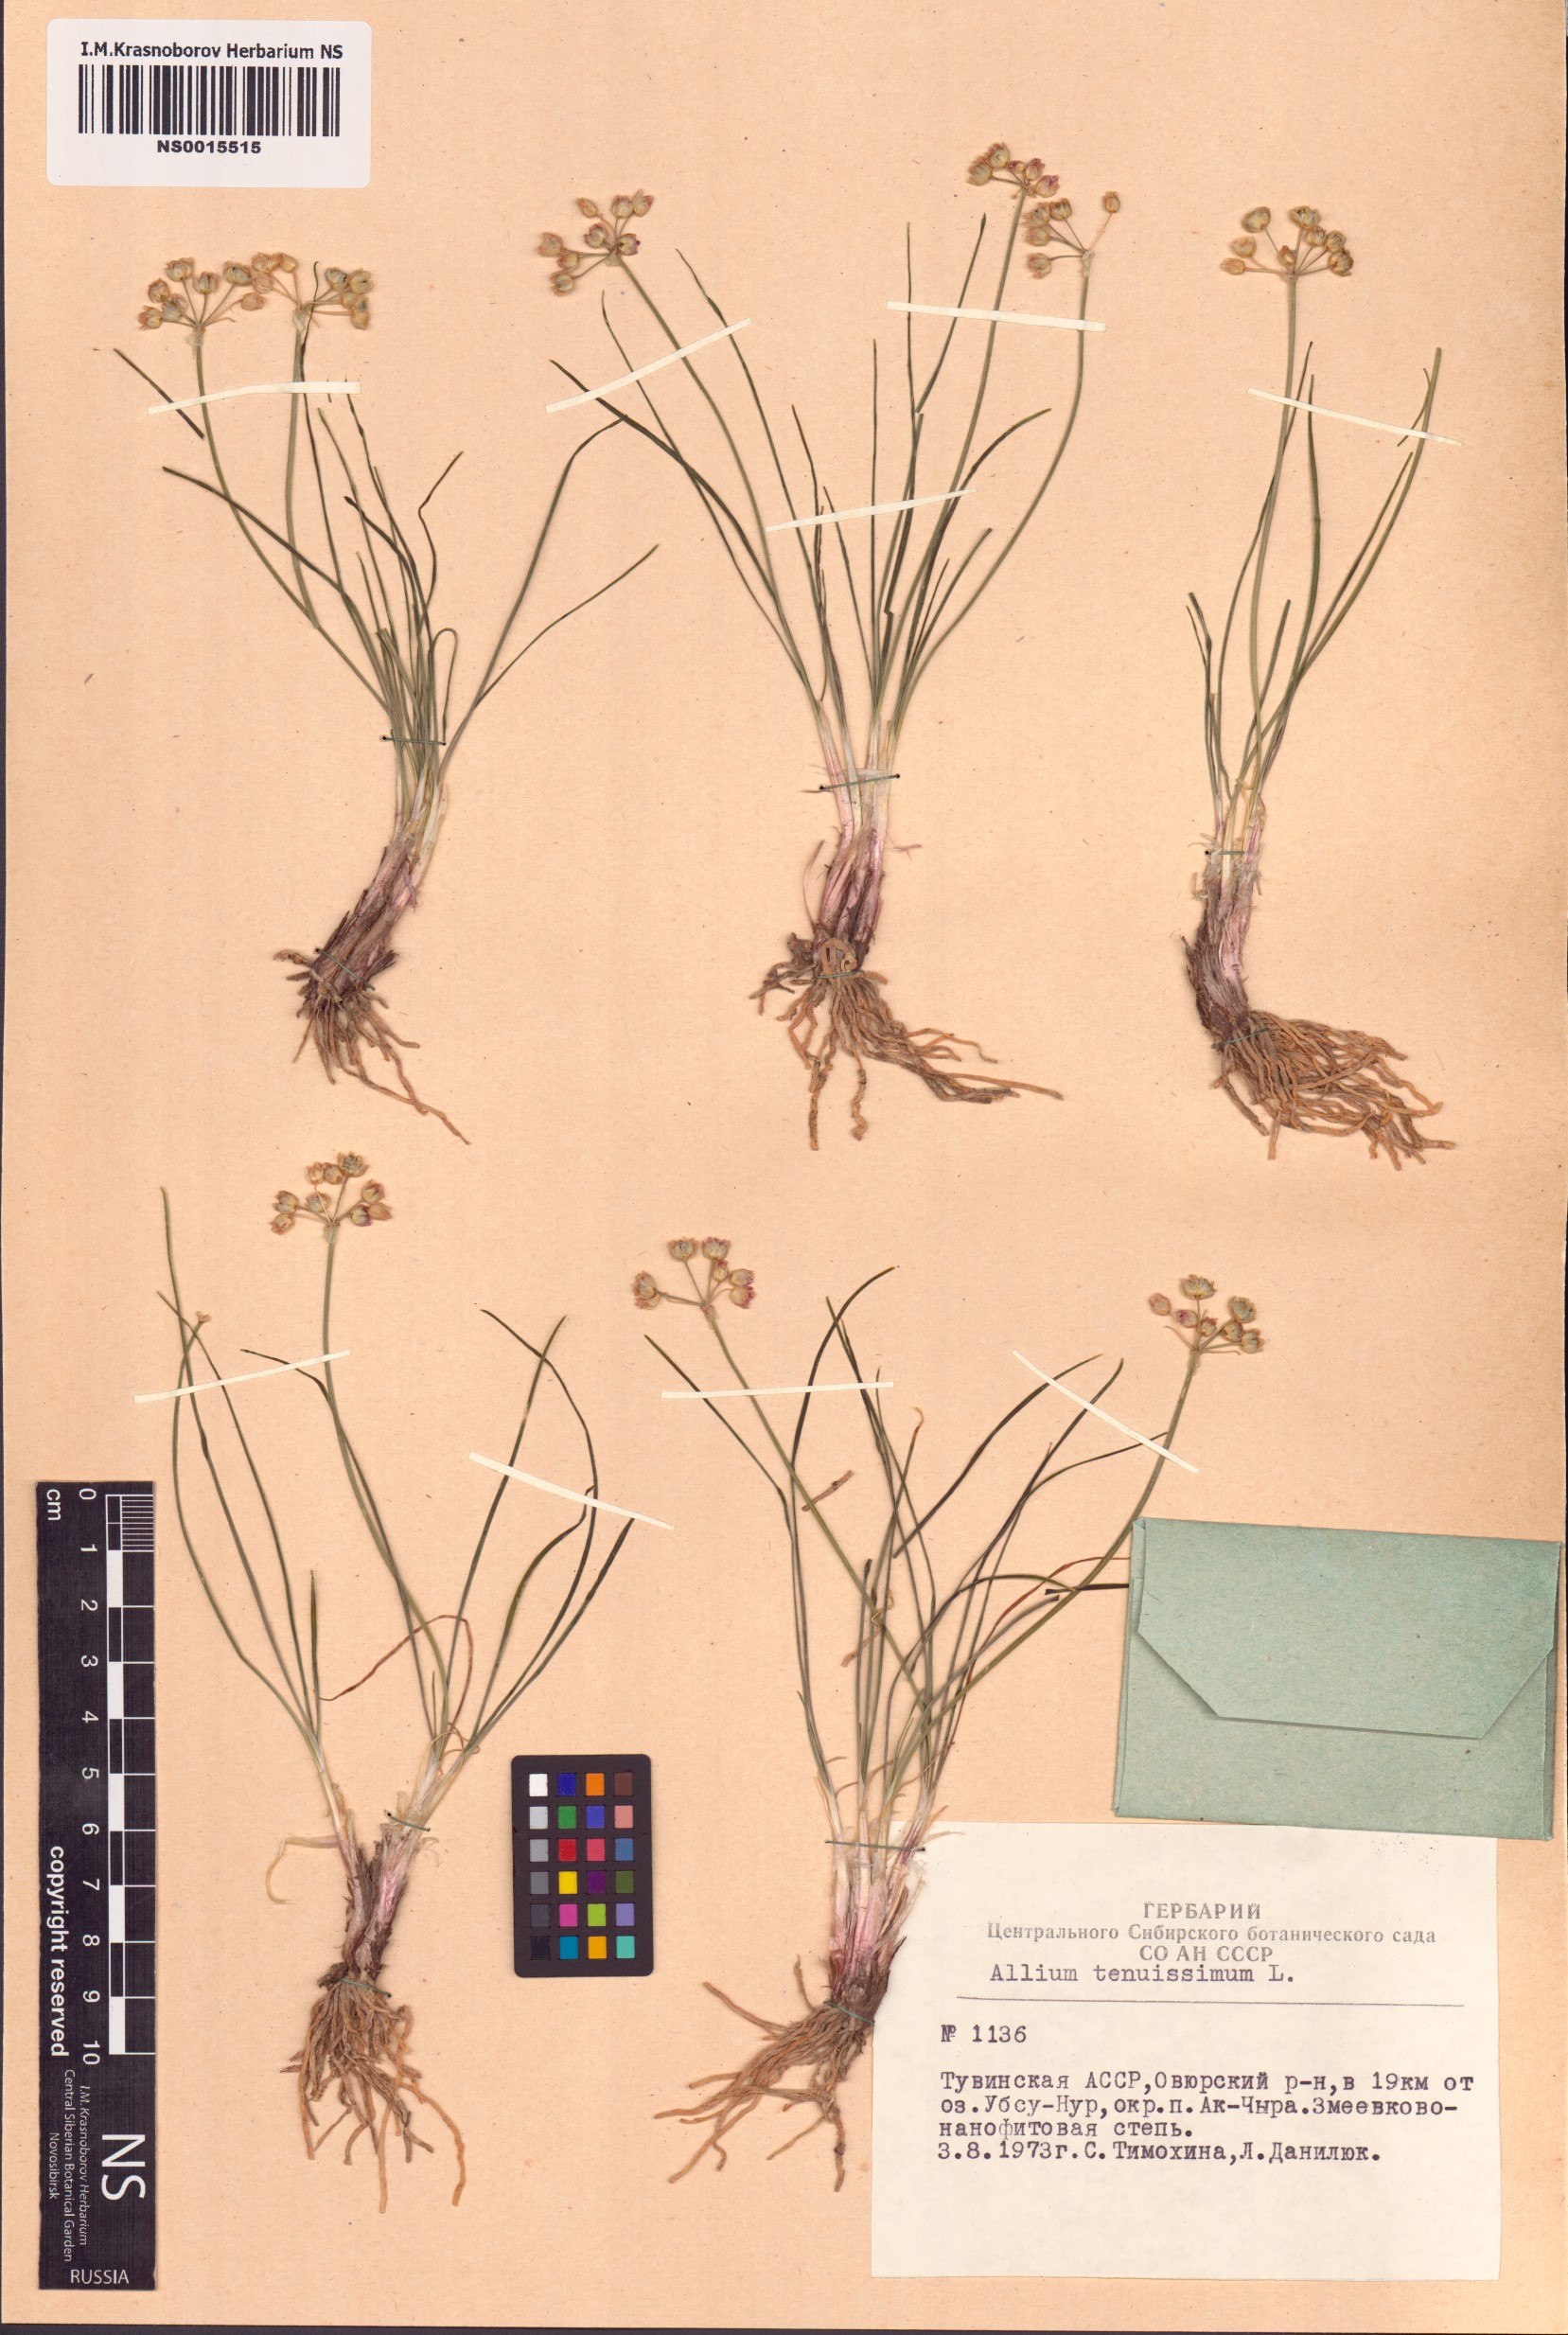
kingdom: Plantae
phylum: Tracheophyta
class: Liliopsida
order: Asparagales
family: Amaryllidaceae
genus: Allium
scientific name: Allium tenuissimum
